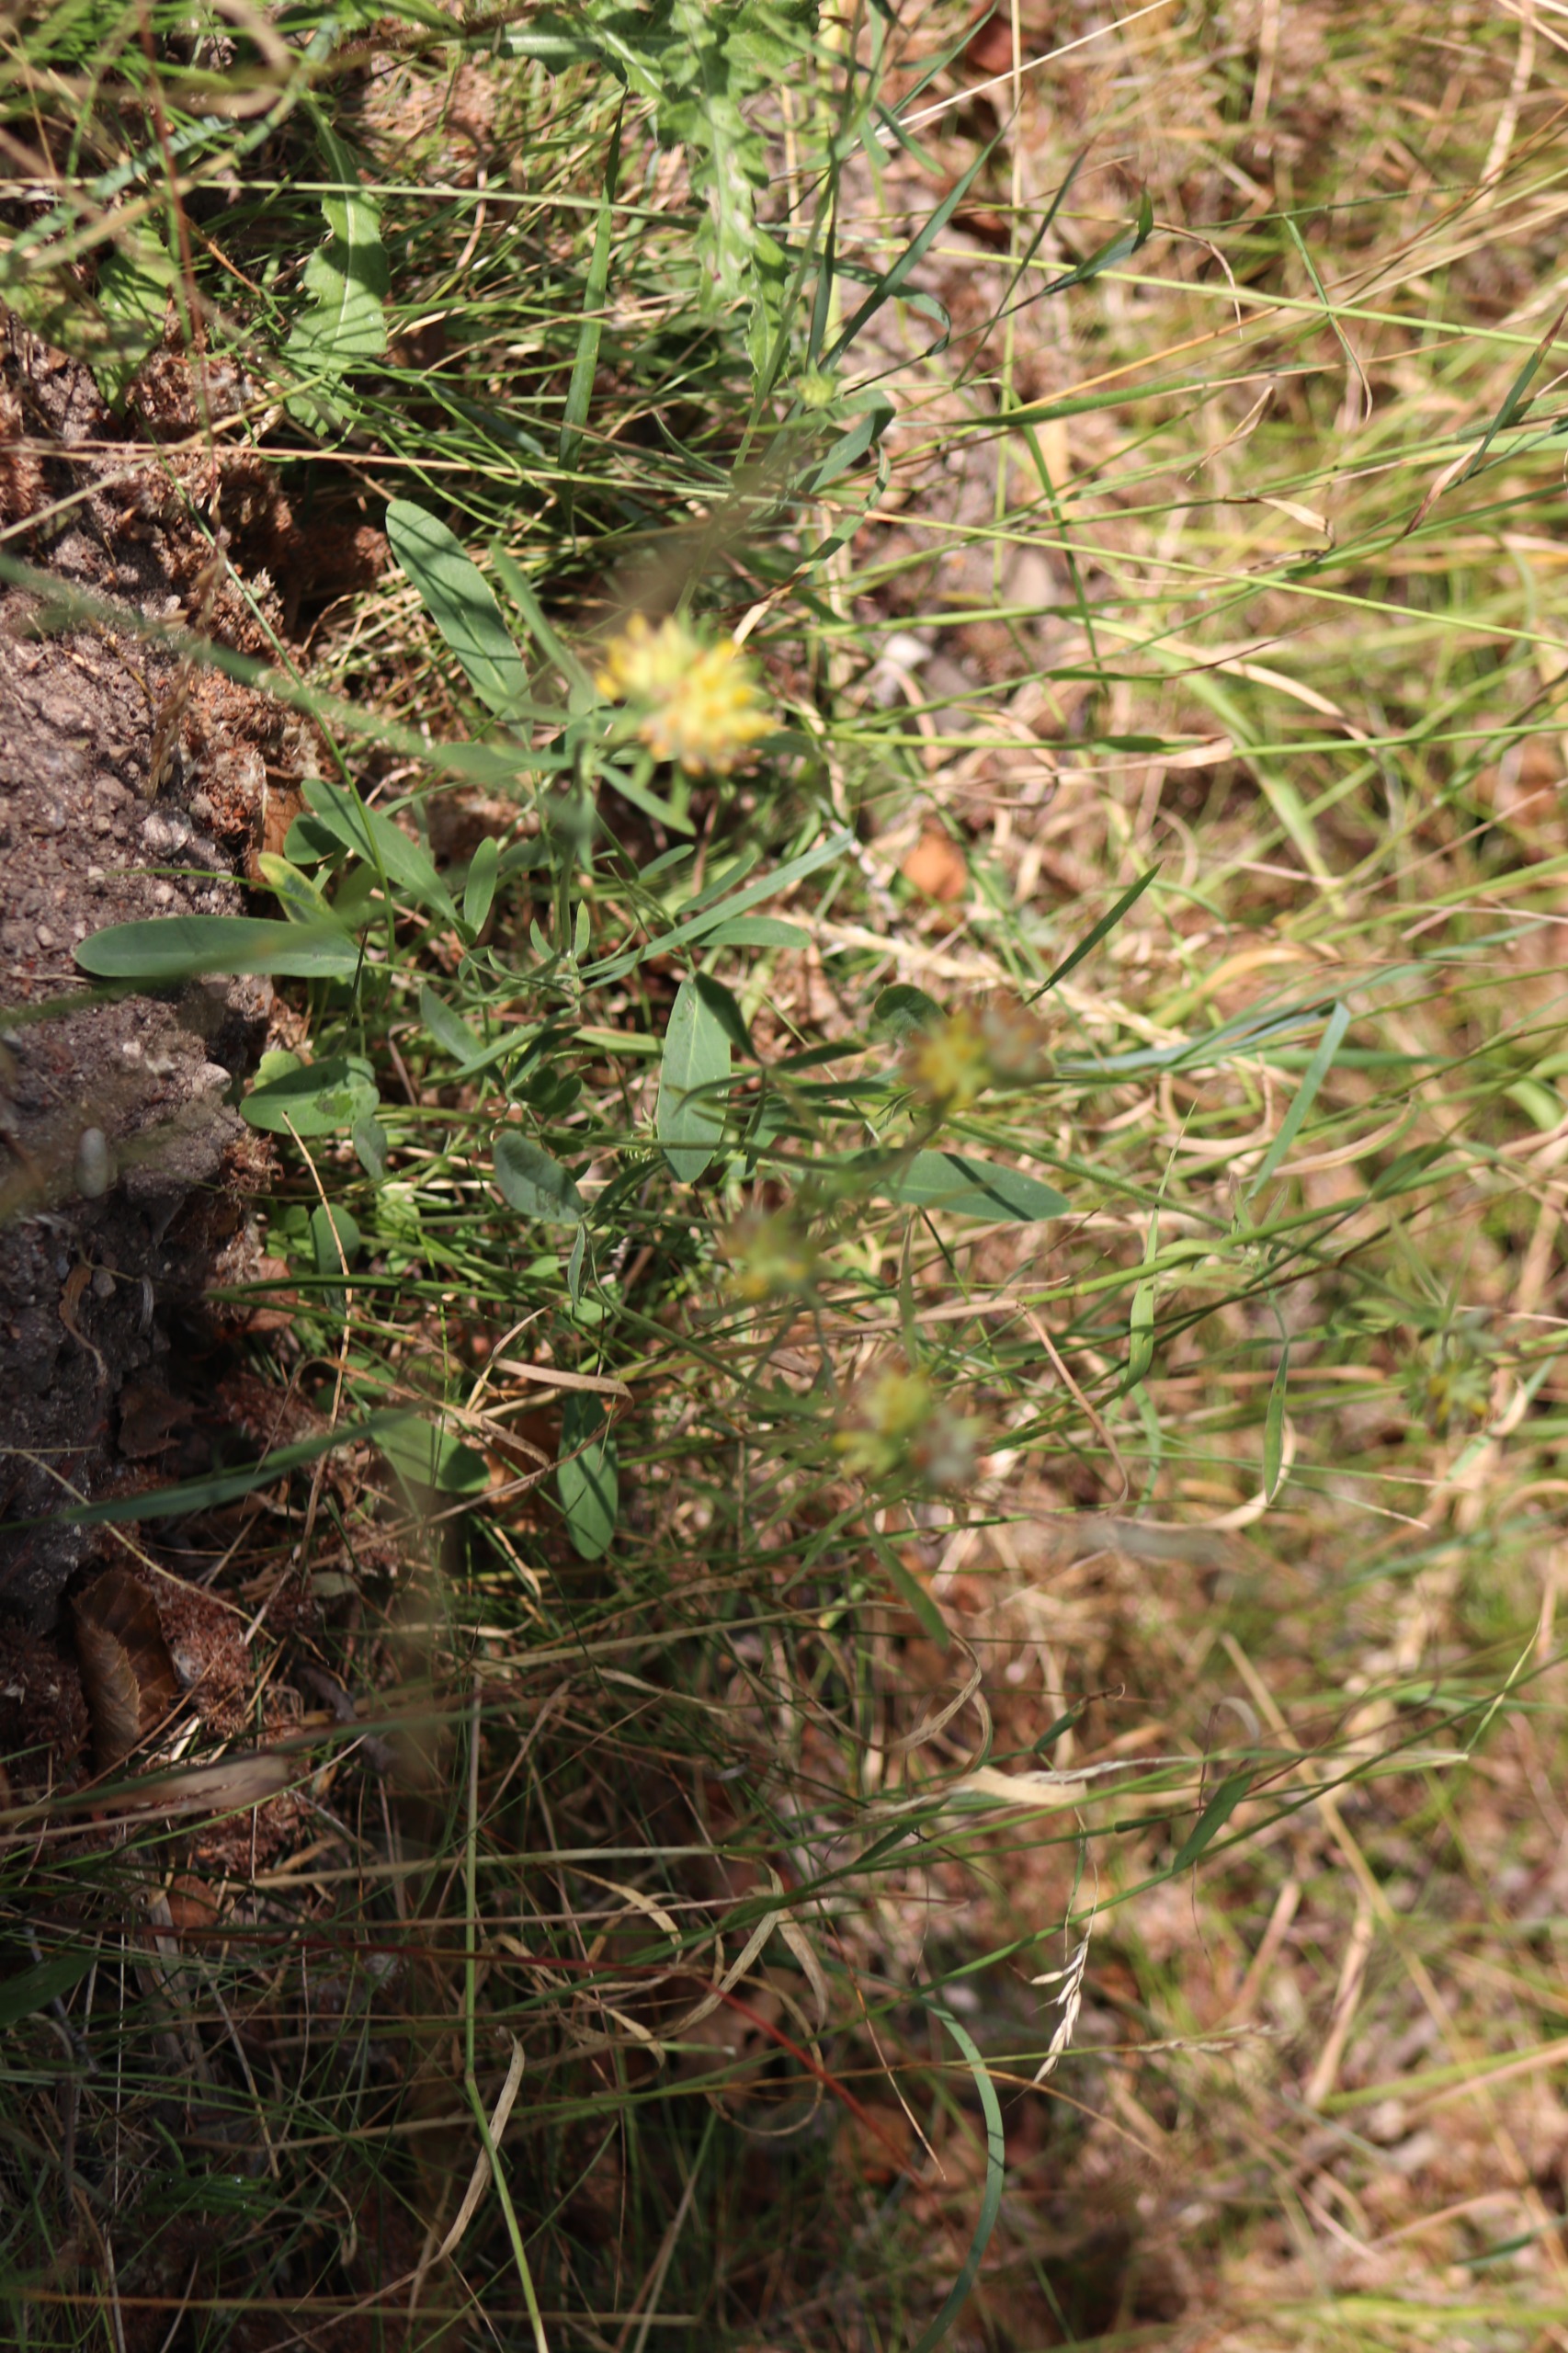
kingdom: Plantae
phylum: Tracheophyta
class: Magnoliopsida
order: Fabales
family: Fabaceae
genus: Anthyllis
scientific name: Anthyllis vulneraria
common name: Rundbælg
